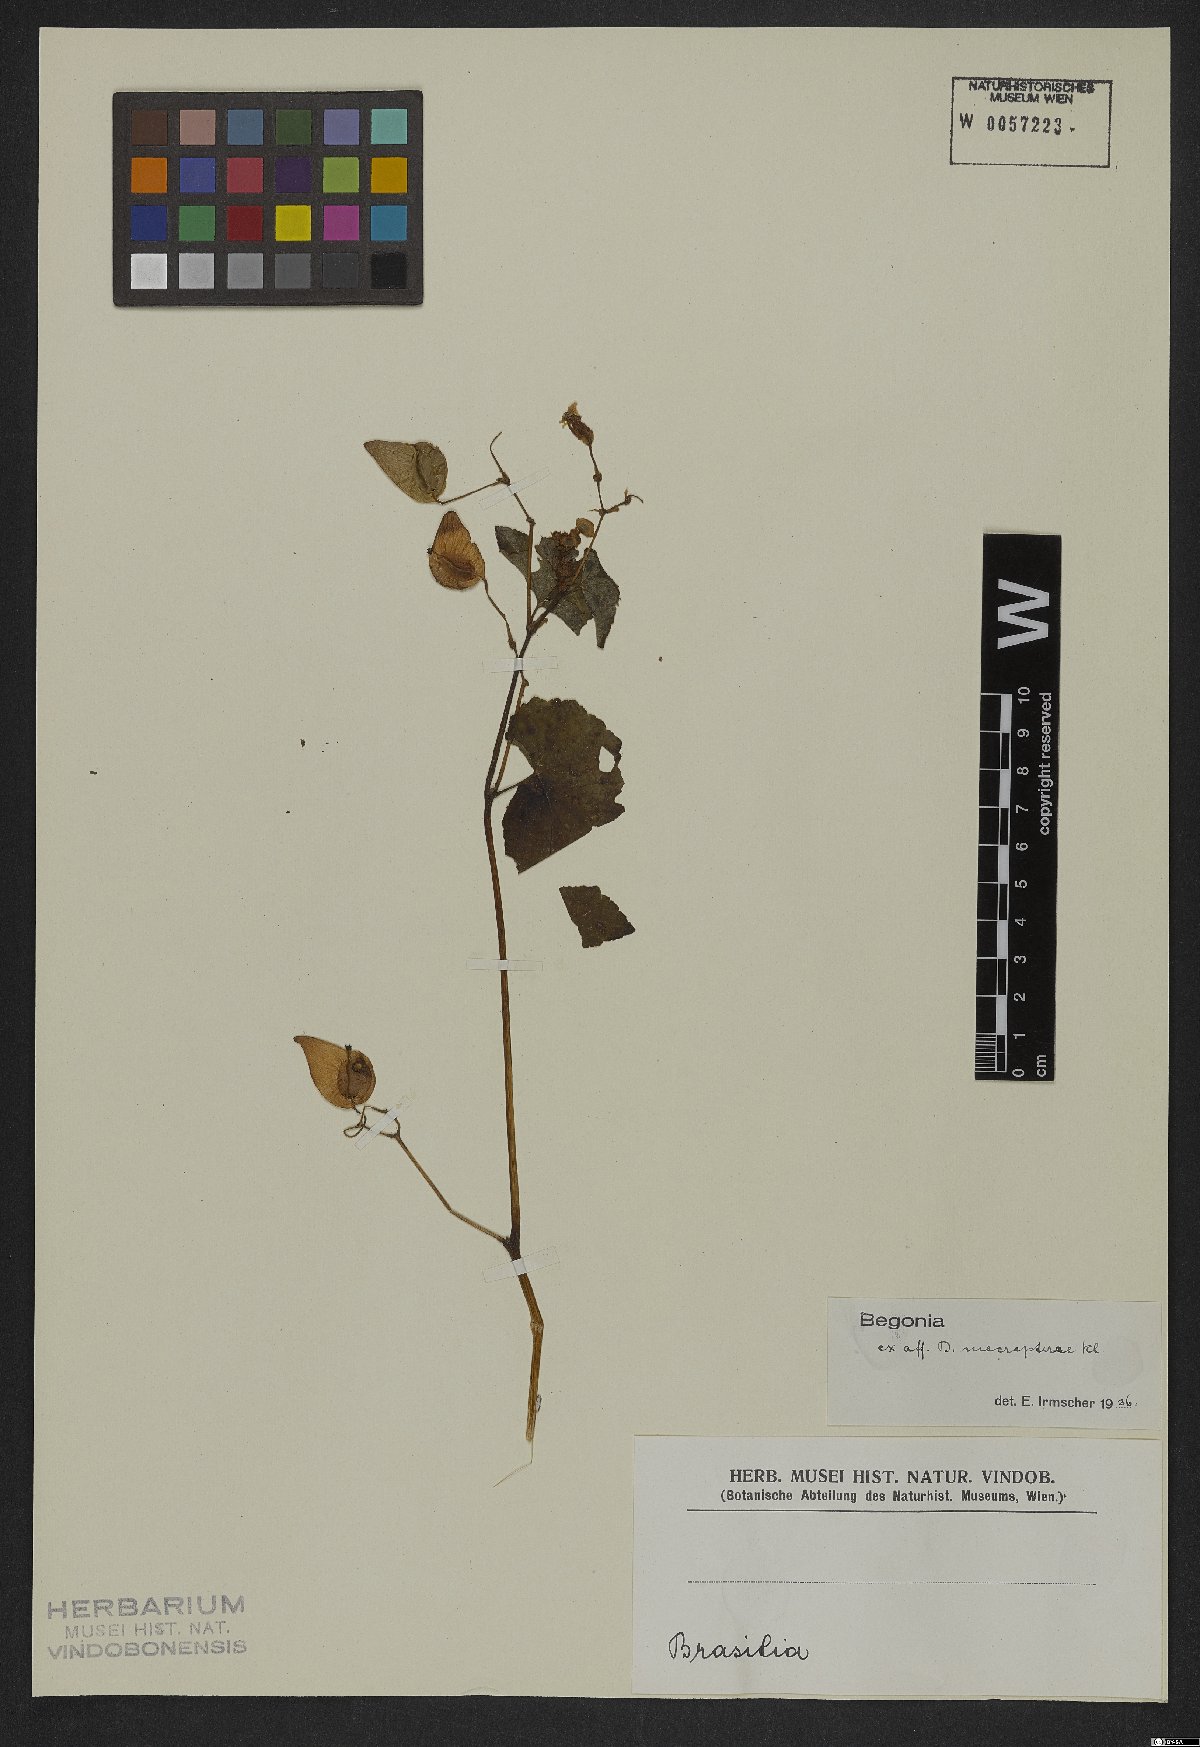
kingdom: Plantae
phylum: Tracheophyta
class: Magnoliopsida
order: Cucurbitales
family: Begoniaceae
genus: Begonia
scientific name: Begonia fischeri
